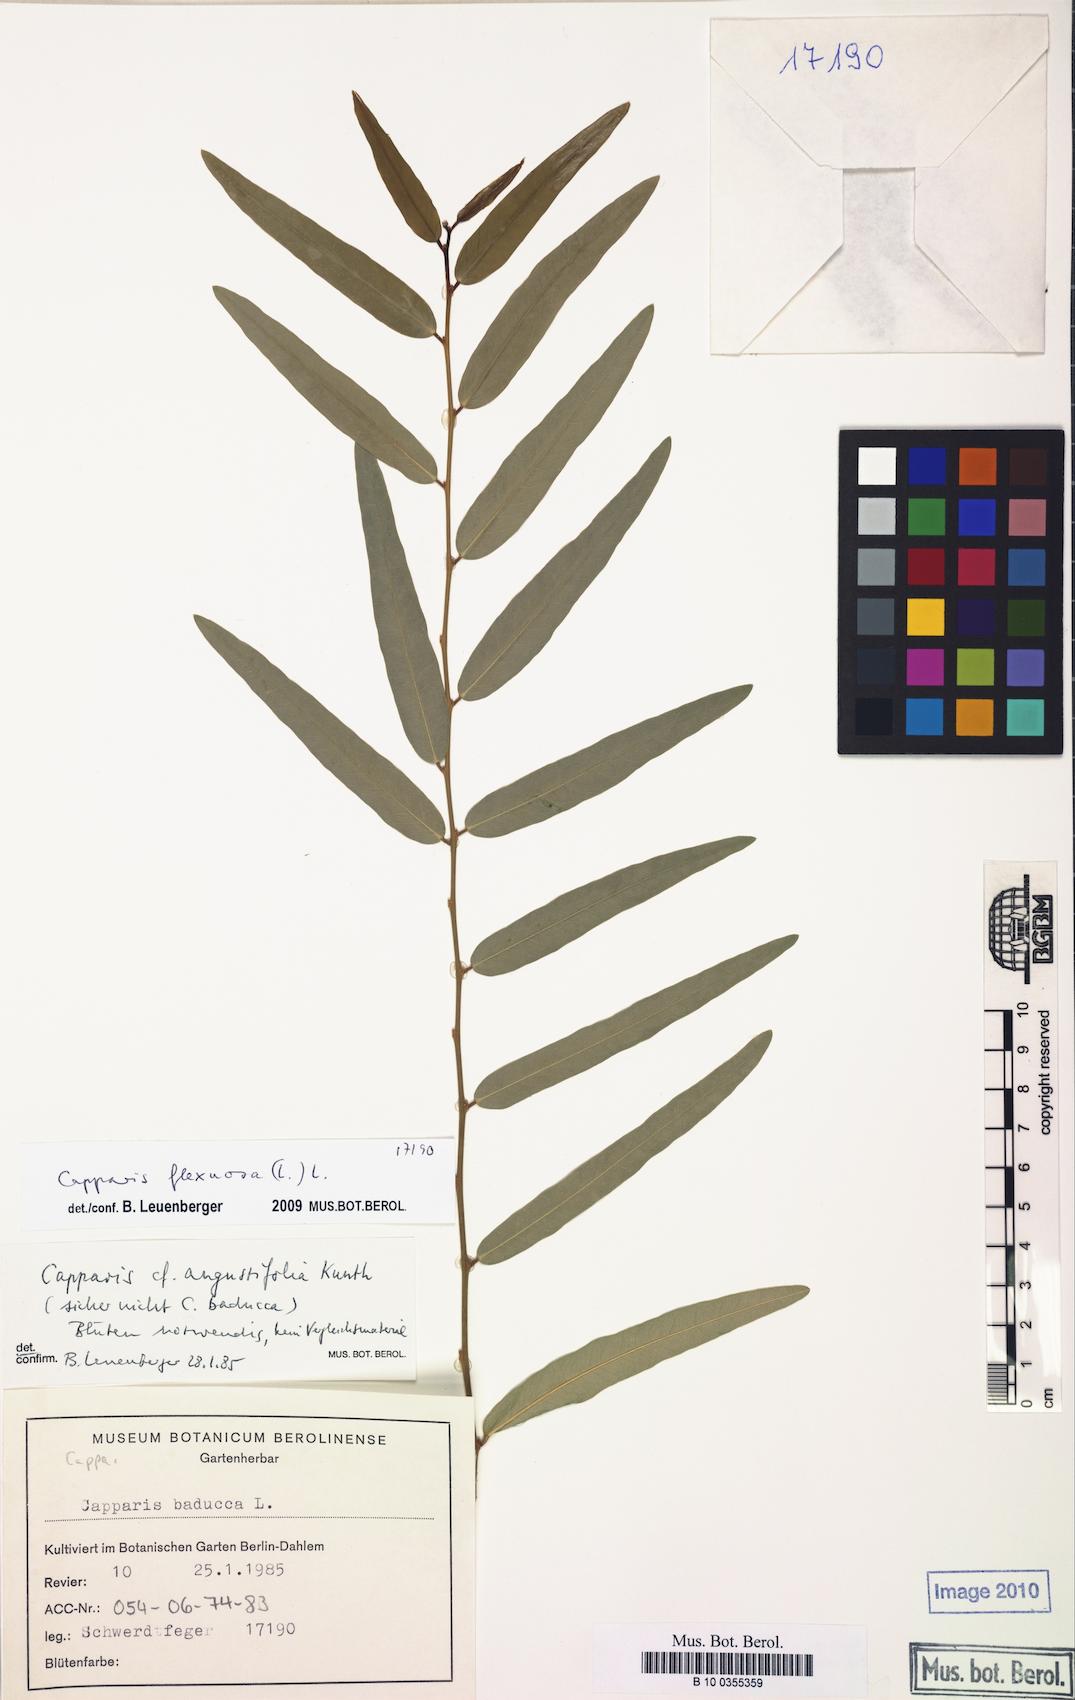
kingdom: Plantae
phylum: Tracheophyta
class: Magnoliopsida
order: Brassicales
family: Capparaceae
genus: Cynophalla
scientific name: Cynophalla flexuosa
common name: Capertree
